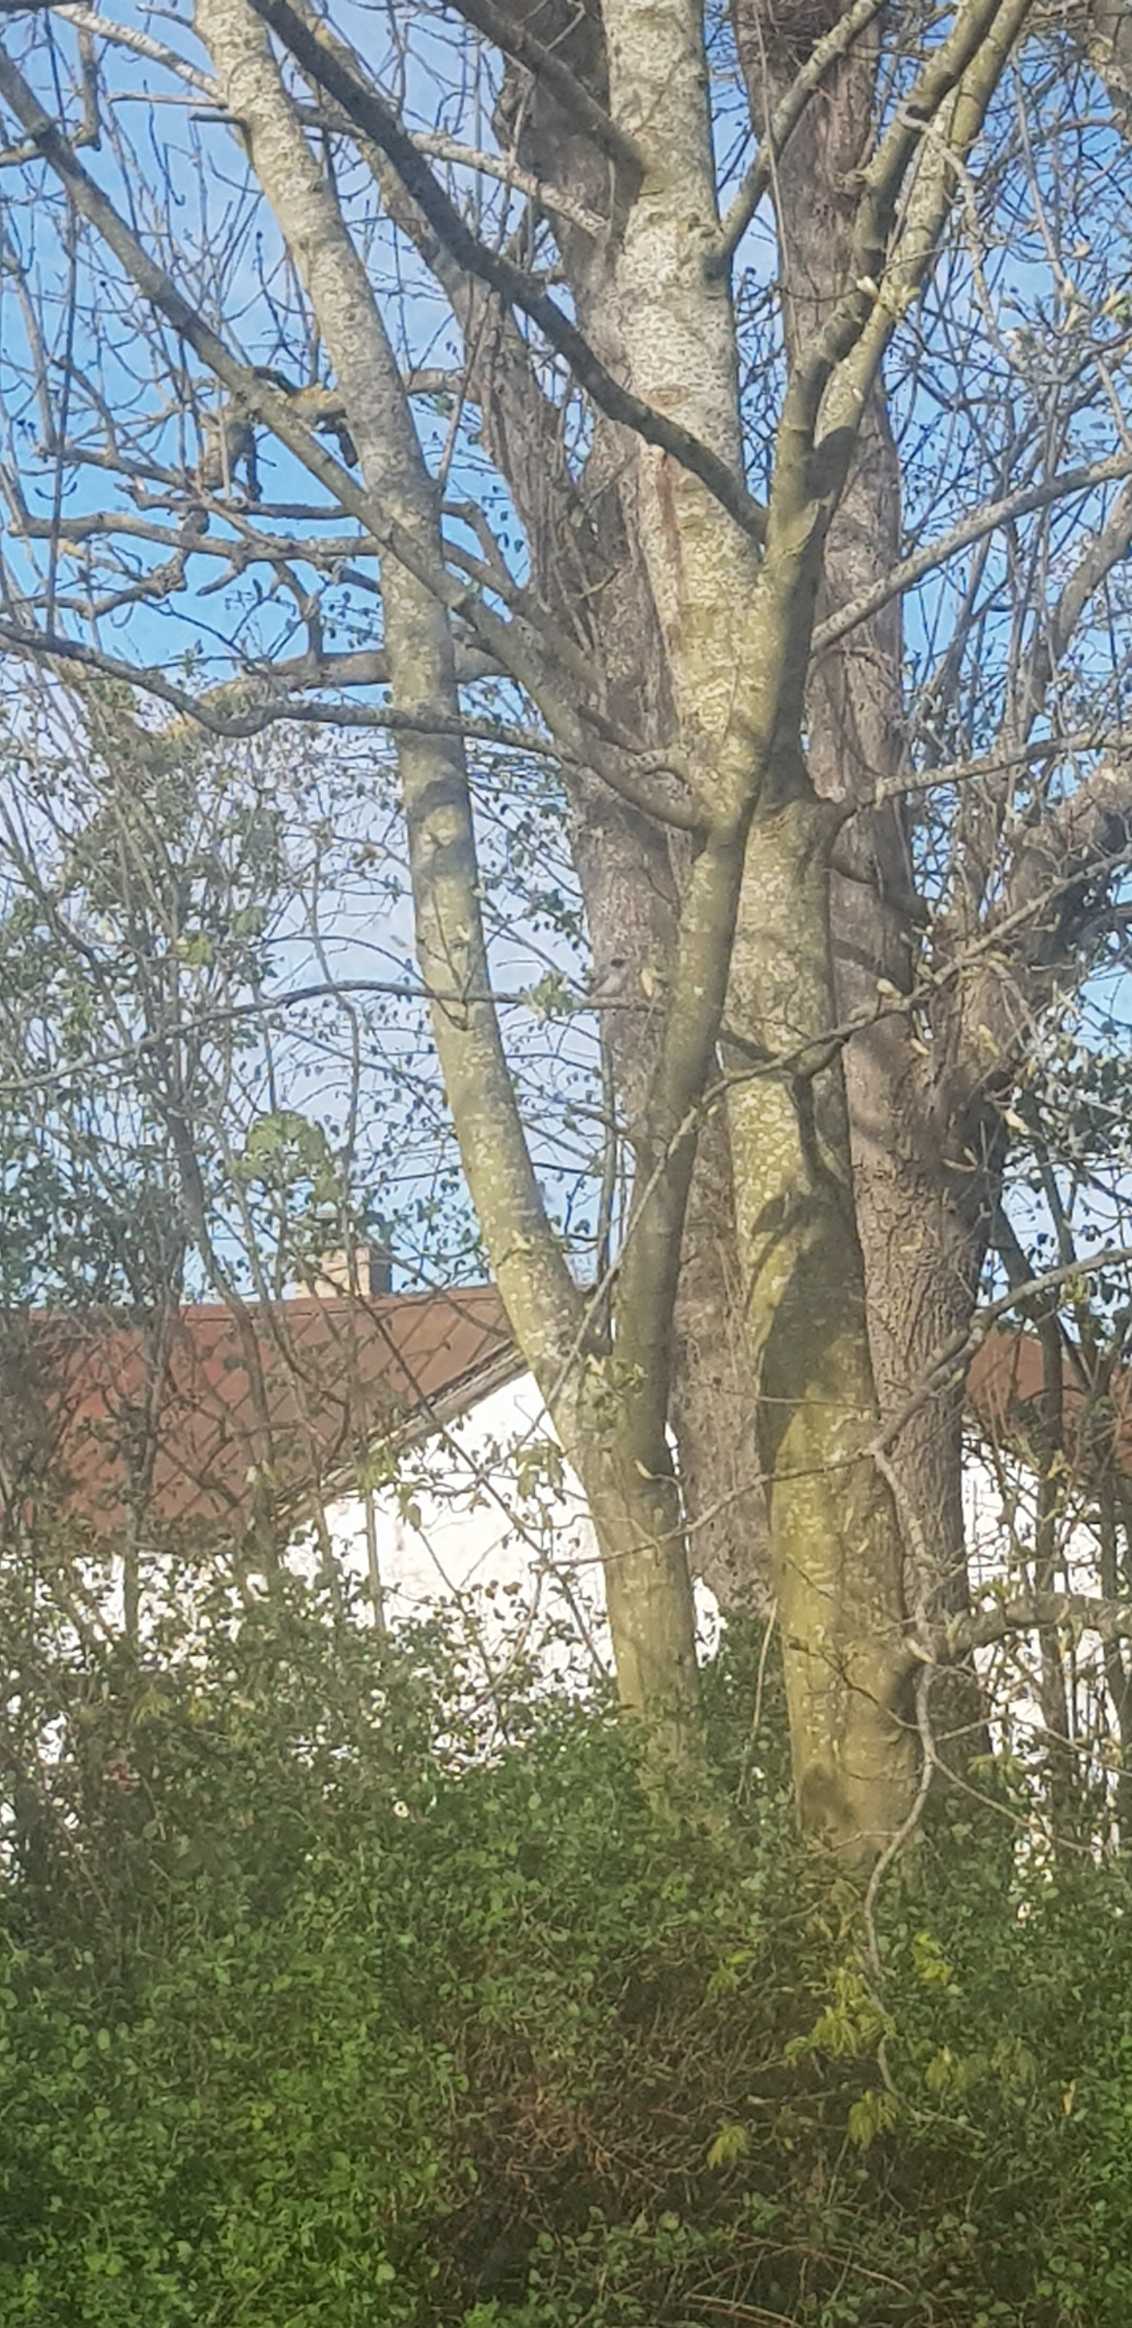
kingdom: Animalia
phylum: Chordata
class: Aves
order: Passeriformes
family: Sylviidae
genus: Sylvia
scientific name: Sylvia atricapilla
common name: Munk
